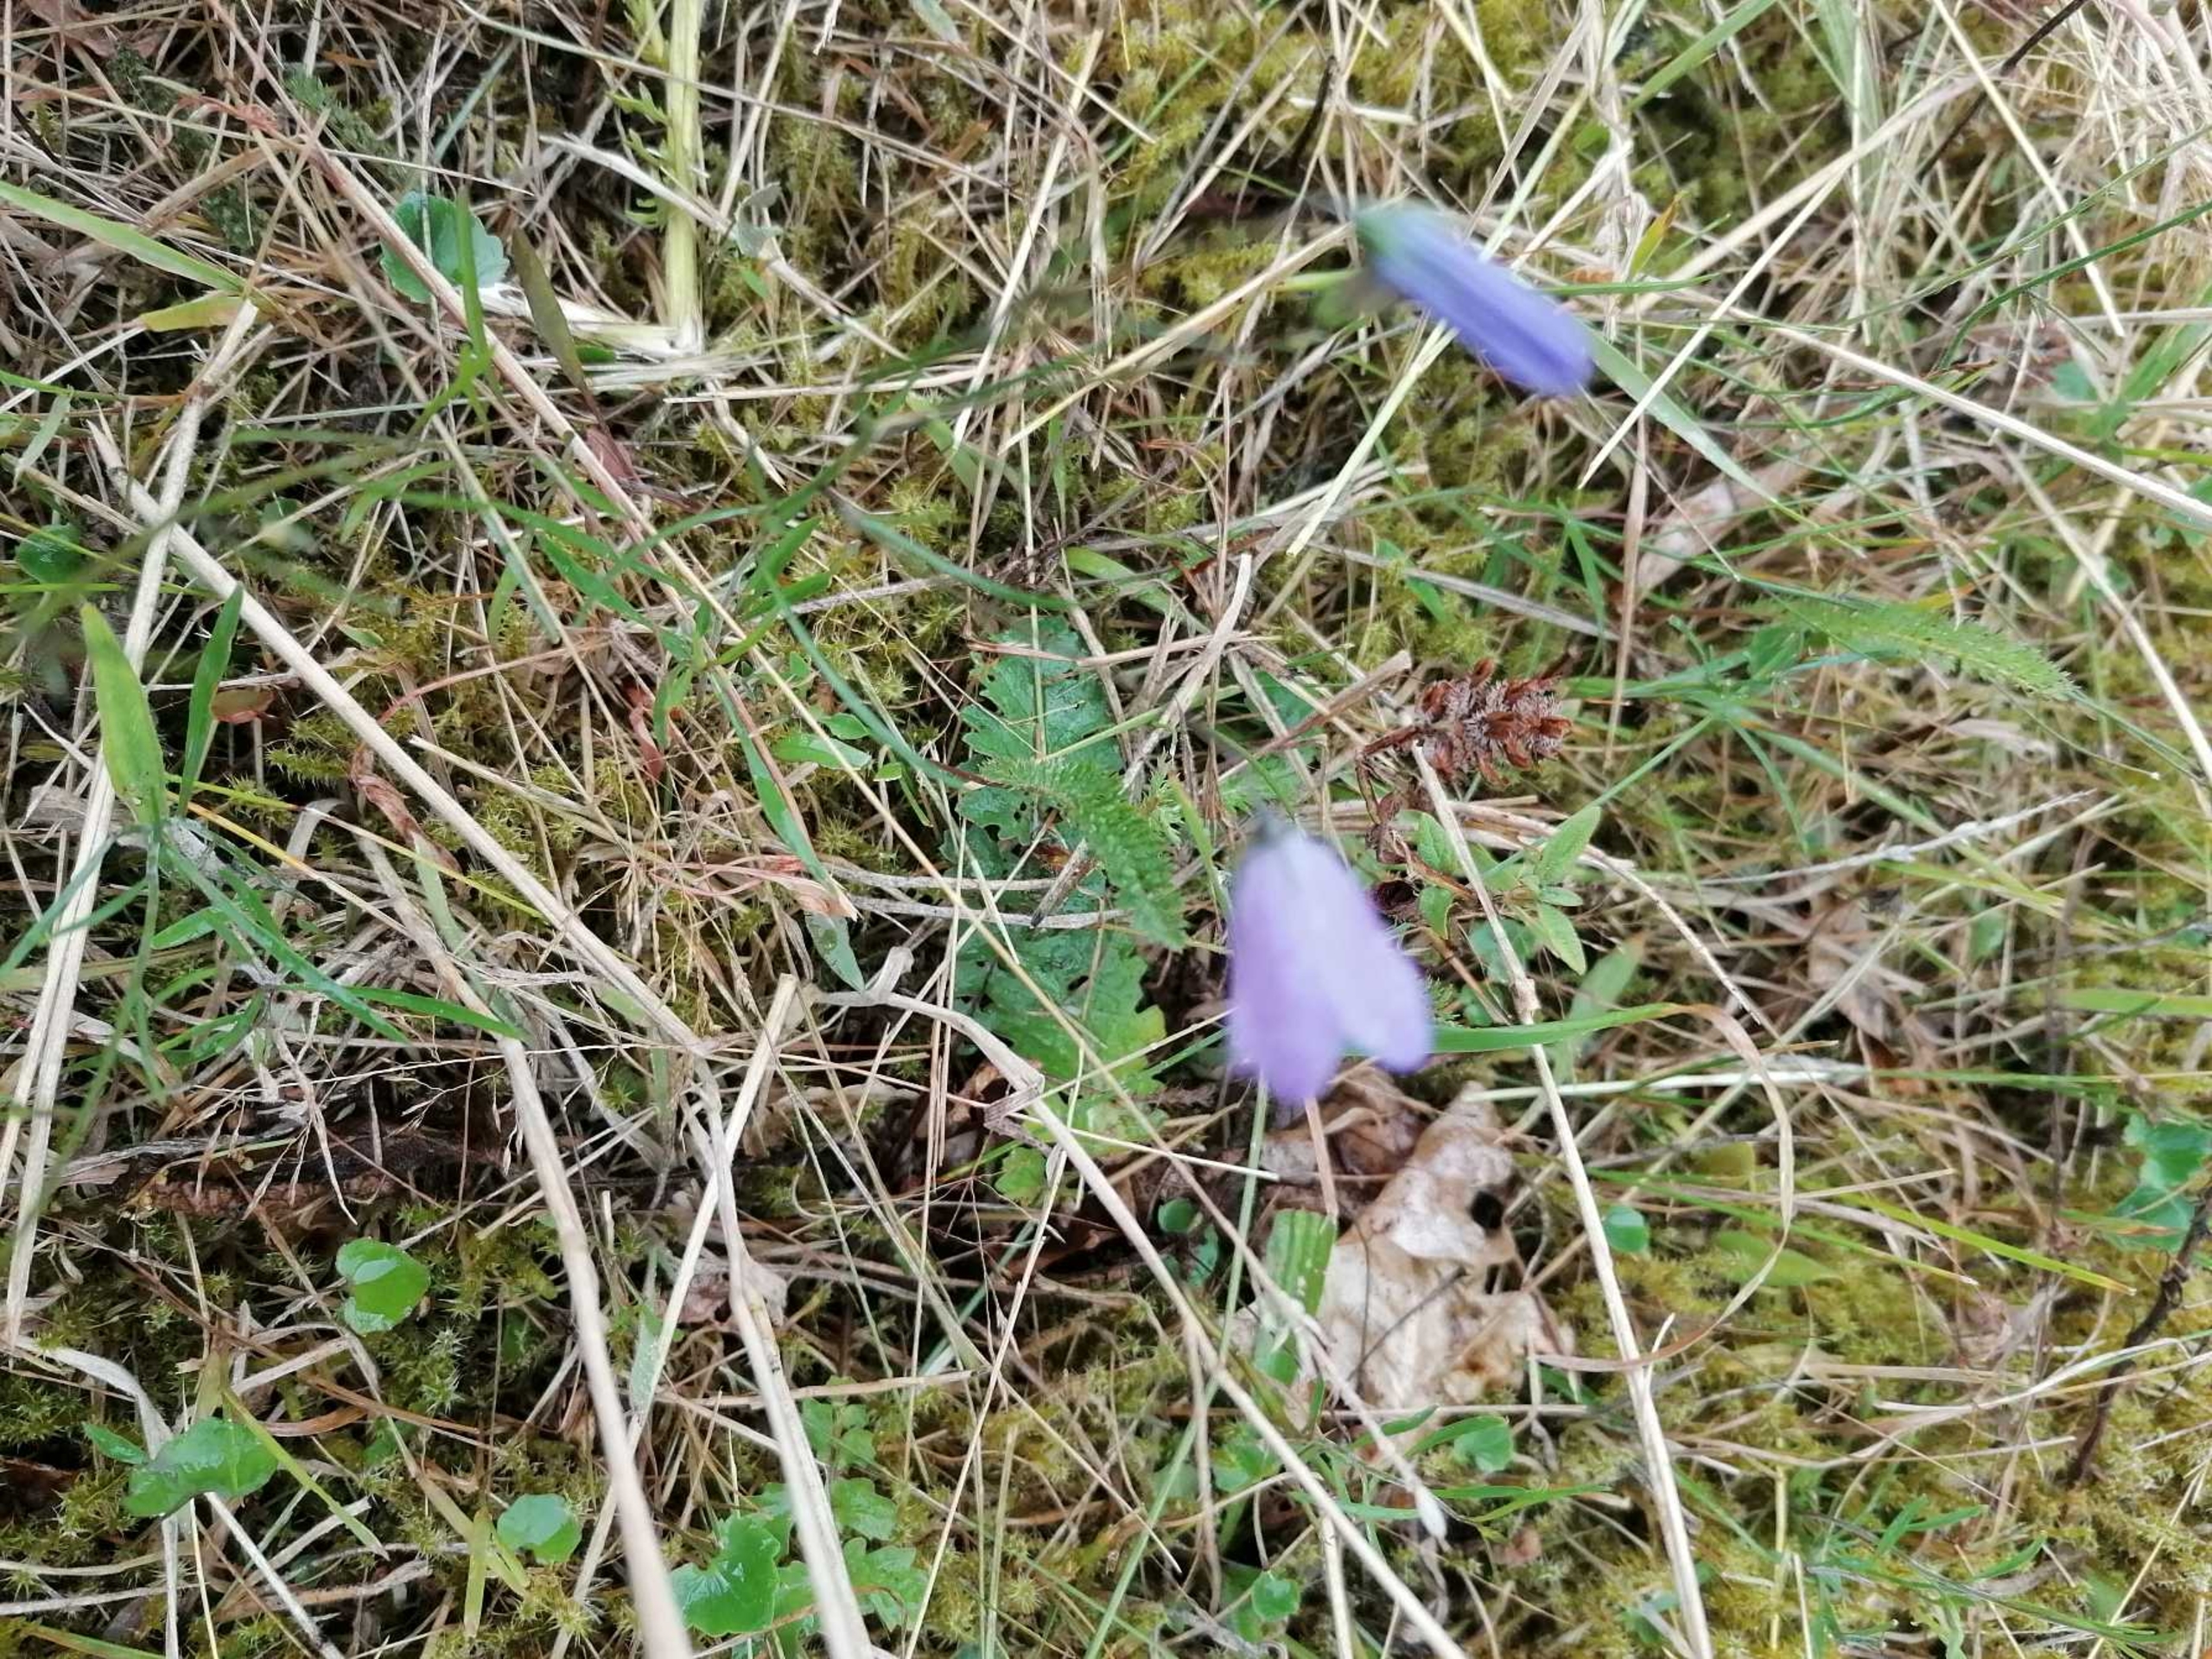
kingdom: Plantae
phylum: Tracheophyta
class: Magnoliopsida
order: Asterales
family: Campanulaceae
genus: Campanula
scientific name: Campanula rotundifolia
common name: Liden klokke
